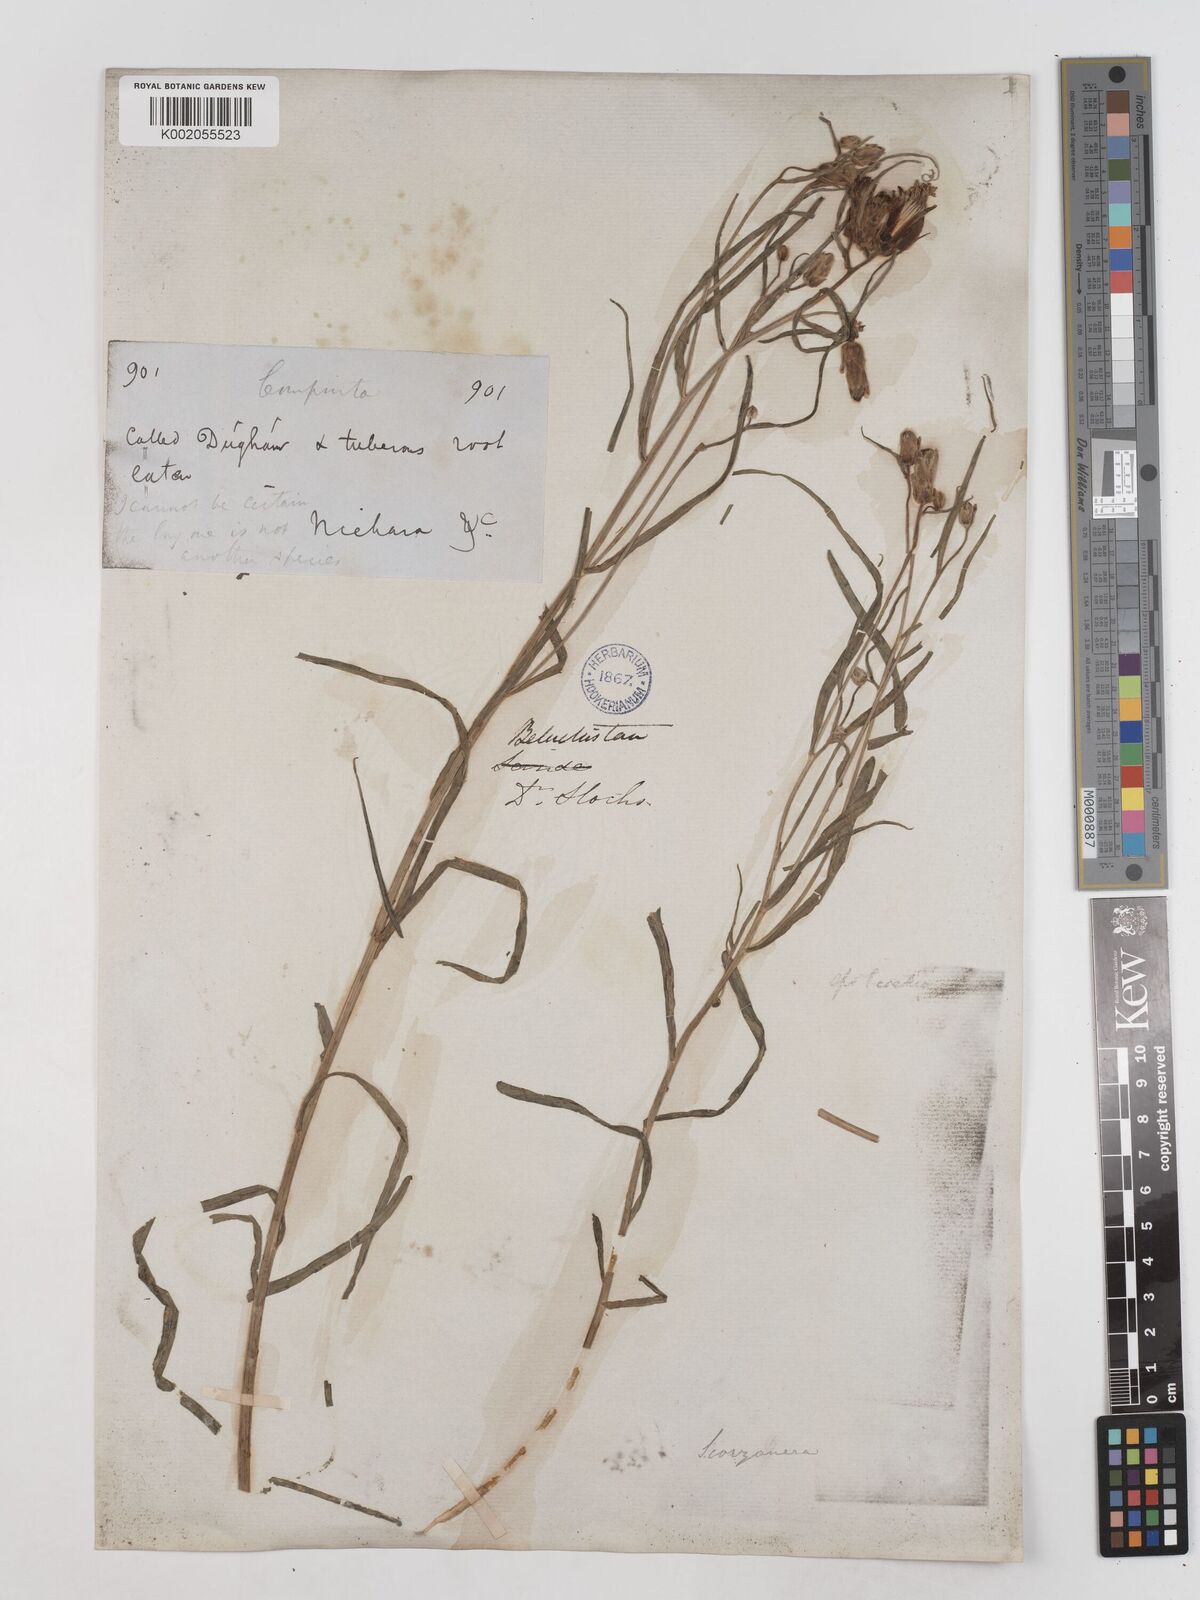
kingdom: Plantae
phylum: Tracheophyta
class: Magnoliopsida
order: Asterales
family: Asteraceae
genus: Takhtajaniantha
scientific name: Takhtajaniantha pusilla
